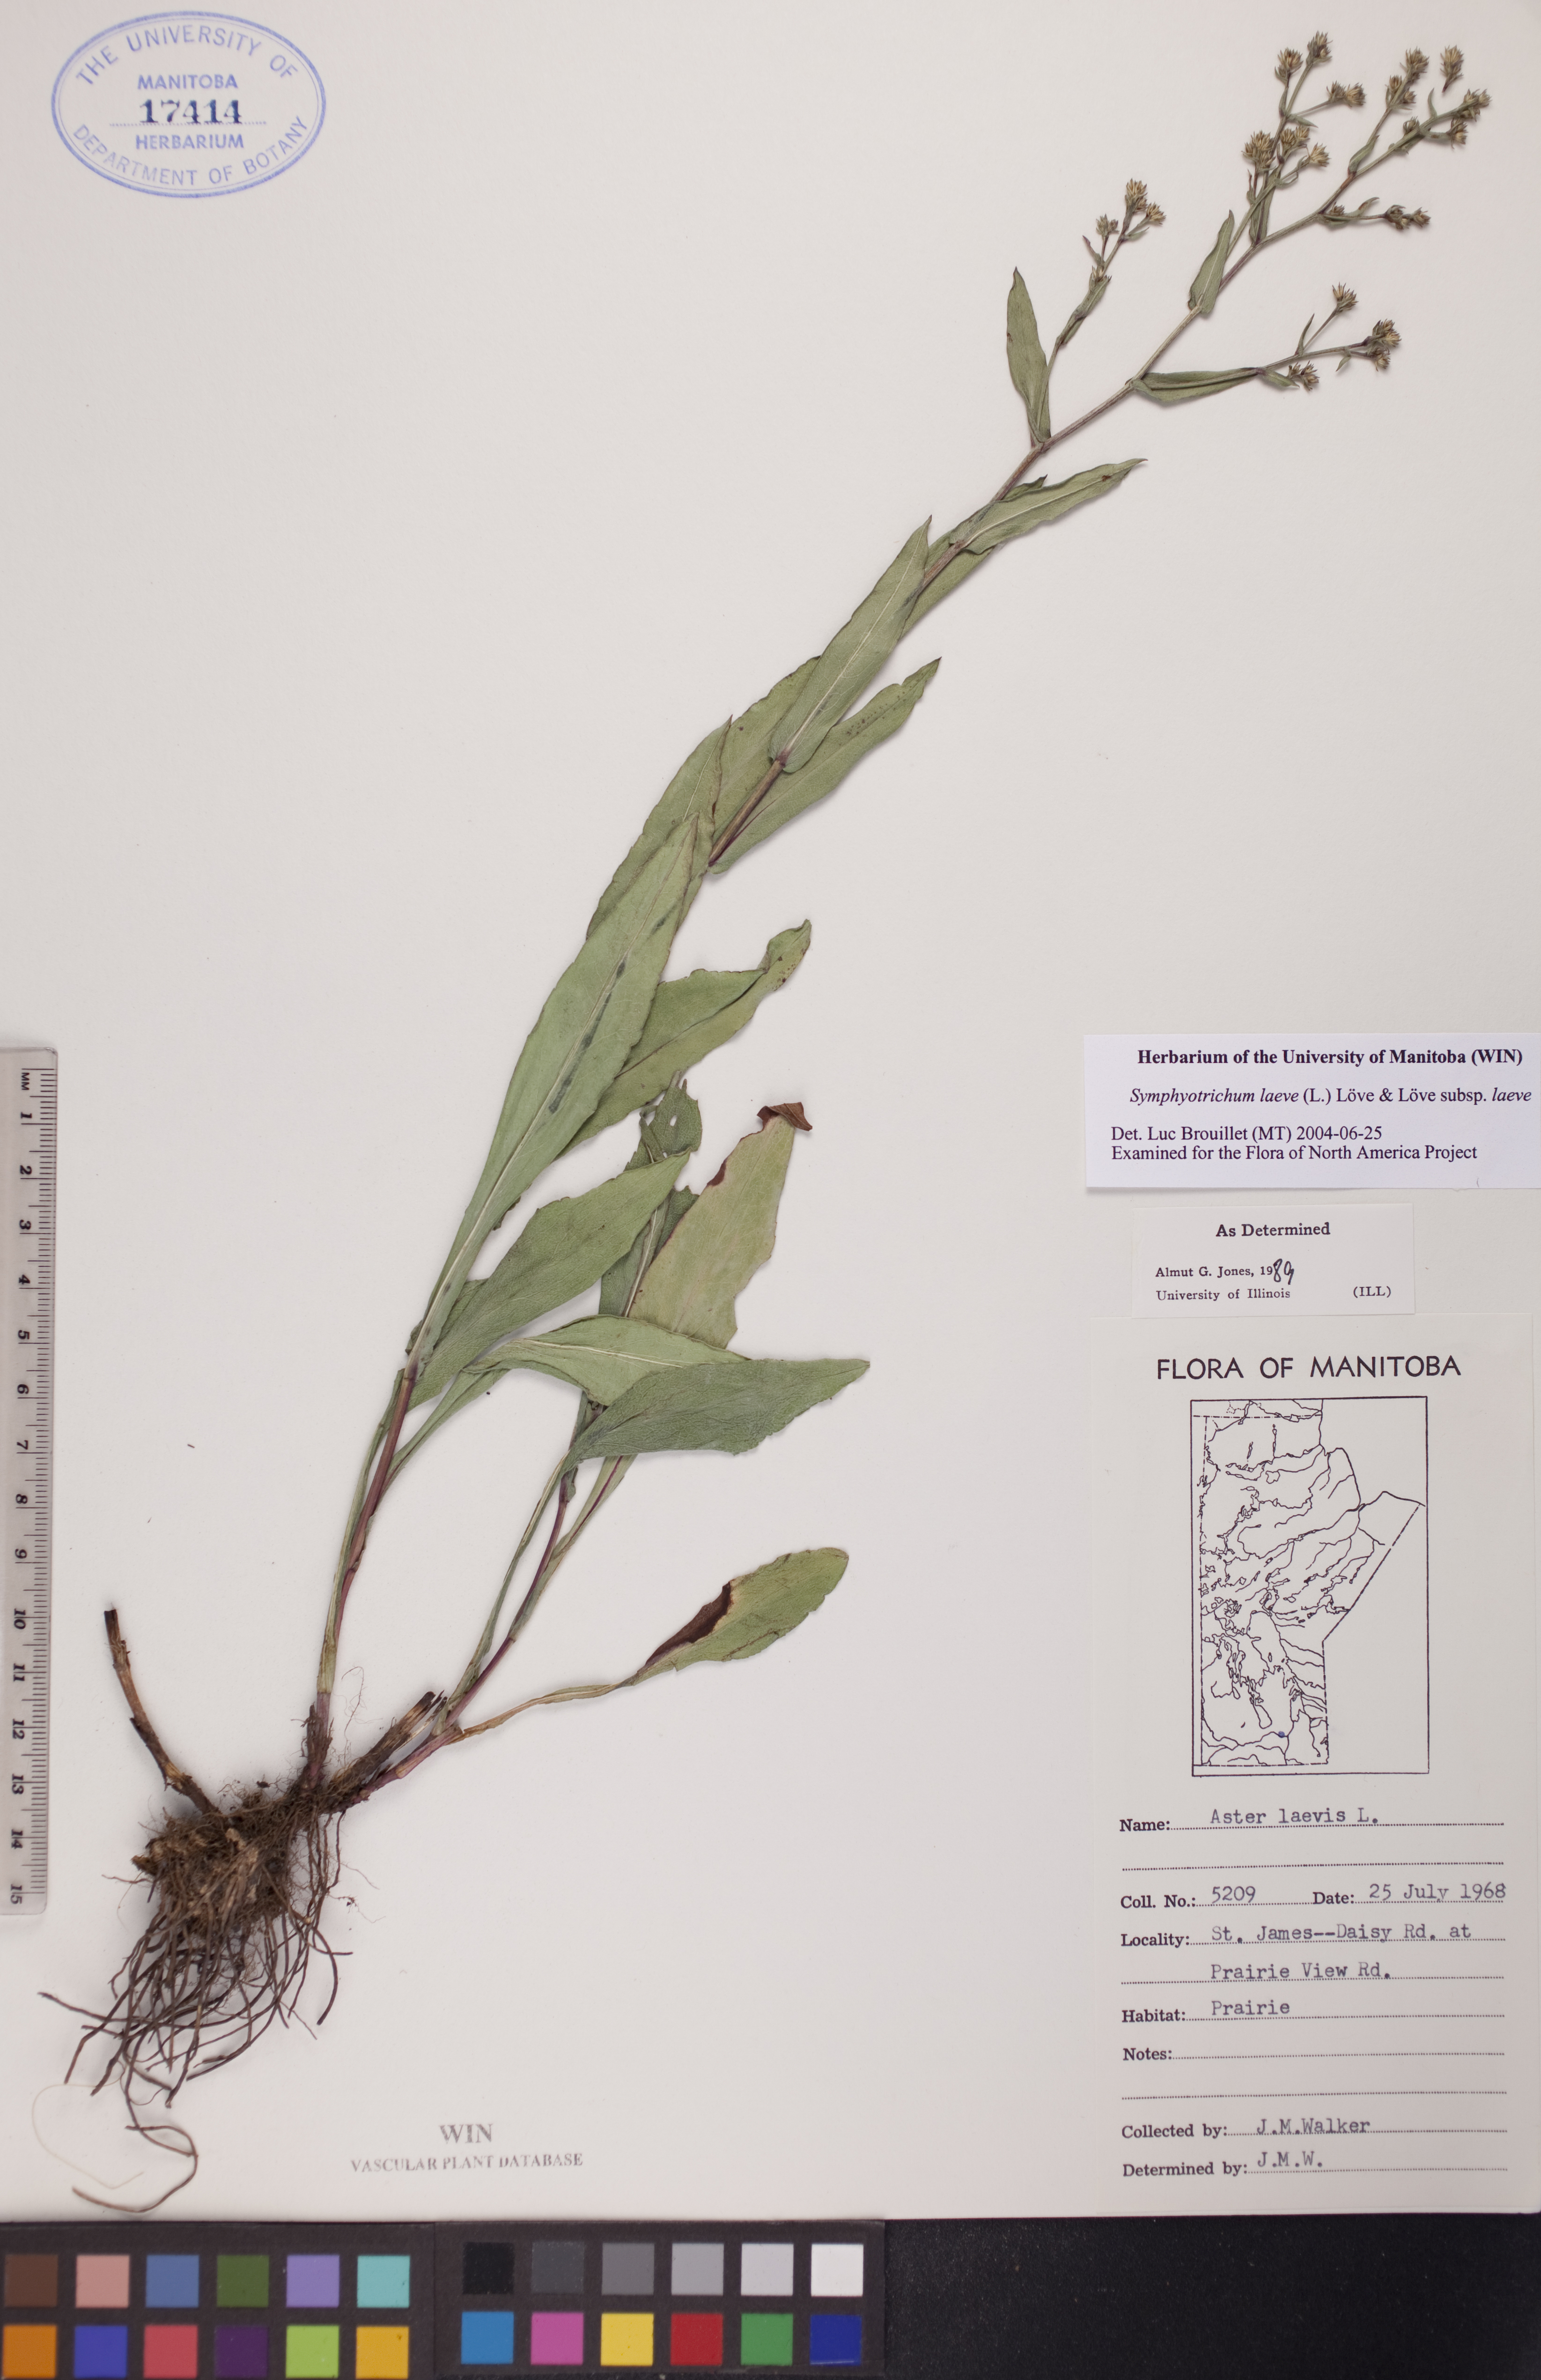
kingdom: Plantae
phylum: Tracheophyta
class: Magnoliopsida
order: Asterales
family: Asteraceae
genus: Symphyotrichum
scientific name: Symphyotrichum laeve
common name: Glaucous aster
